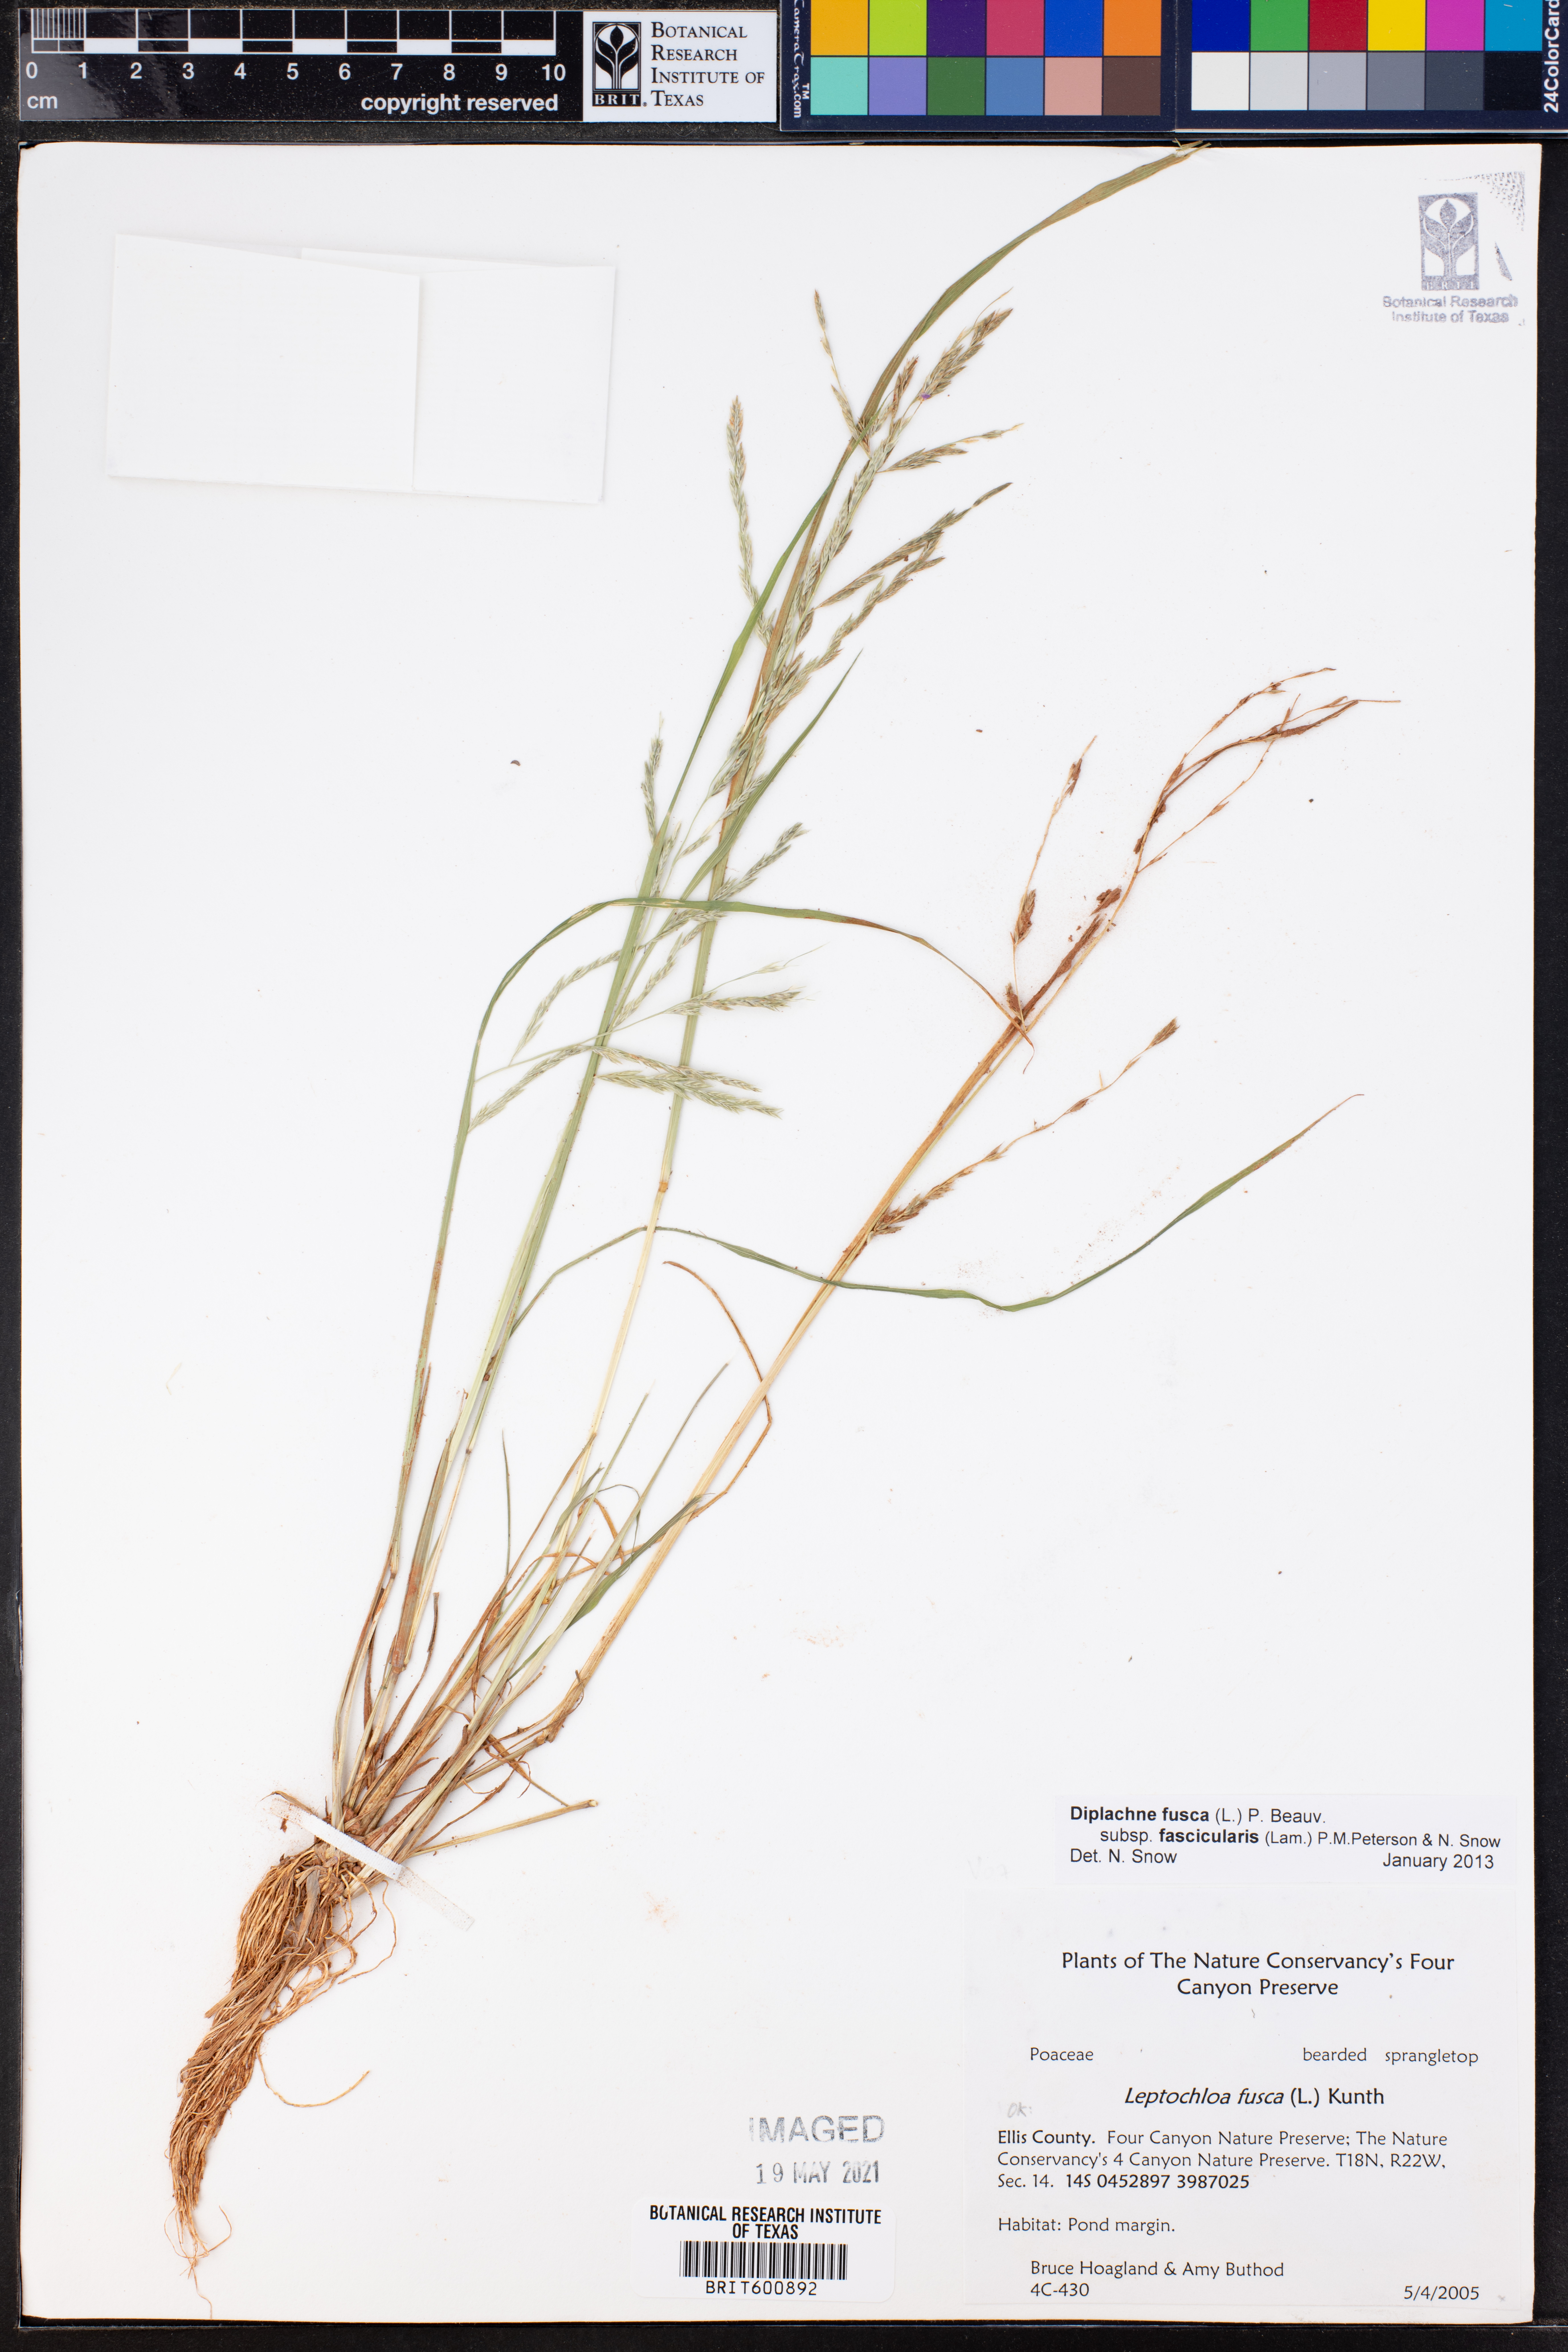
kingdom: Plantae
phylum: Tracheophyta
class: Liliopsida
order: Poales
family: Poaceae
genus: Diplachne
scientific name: Diplachne fusca
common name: Brown beetle grass
